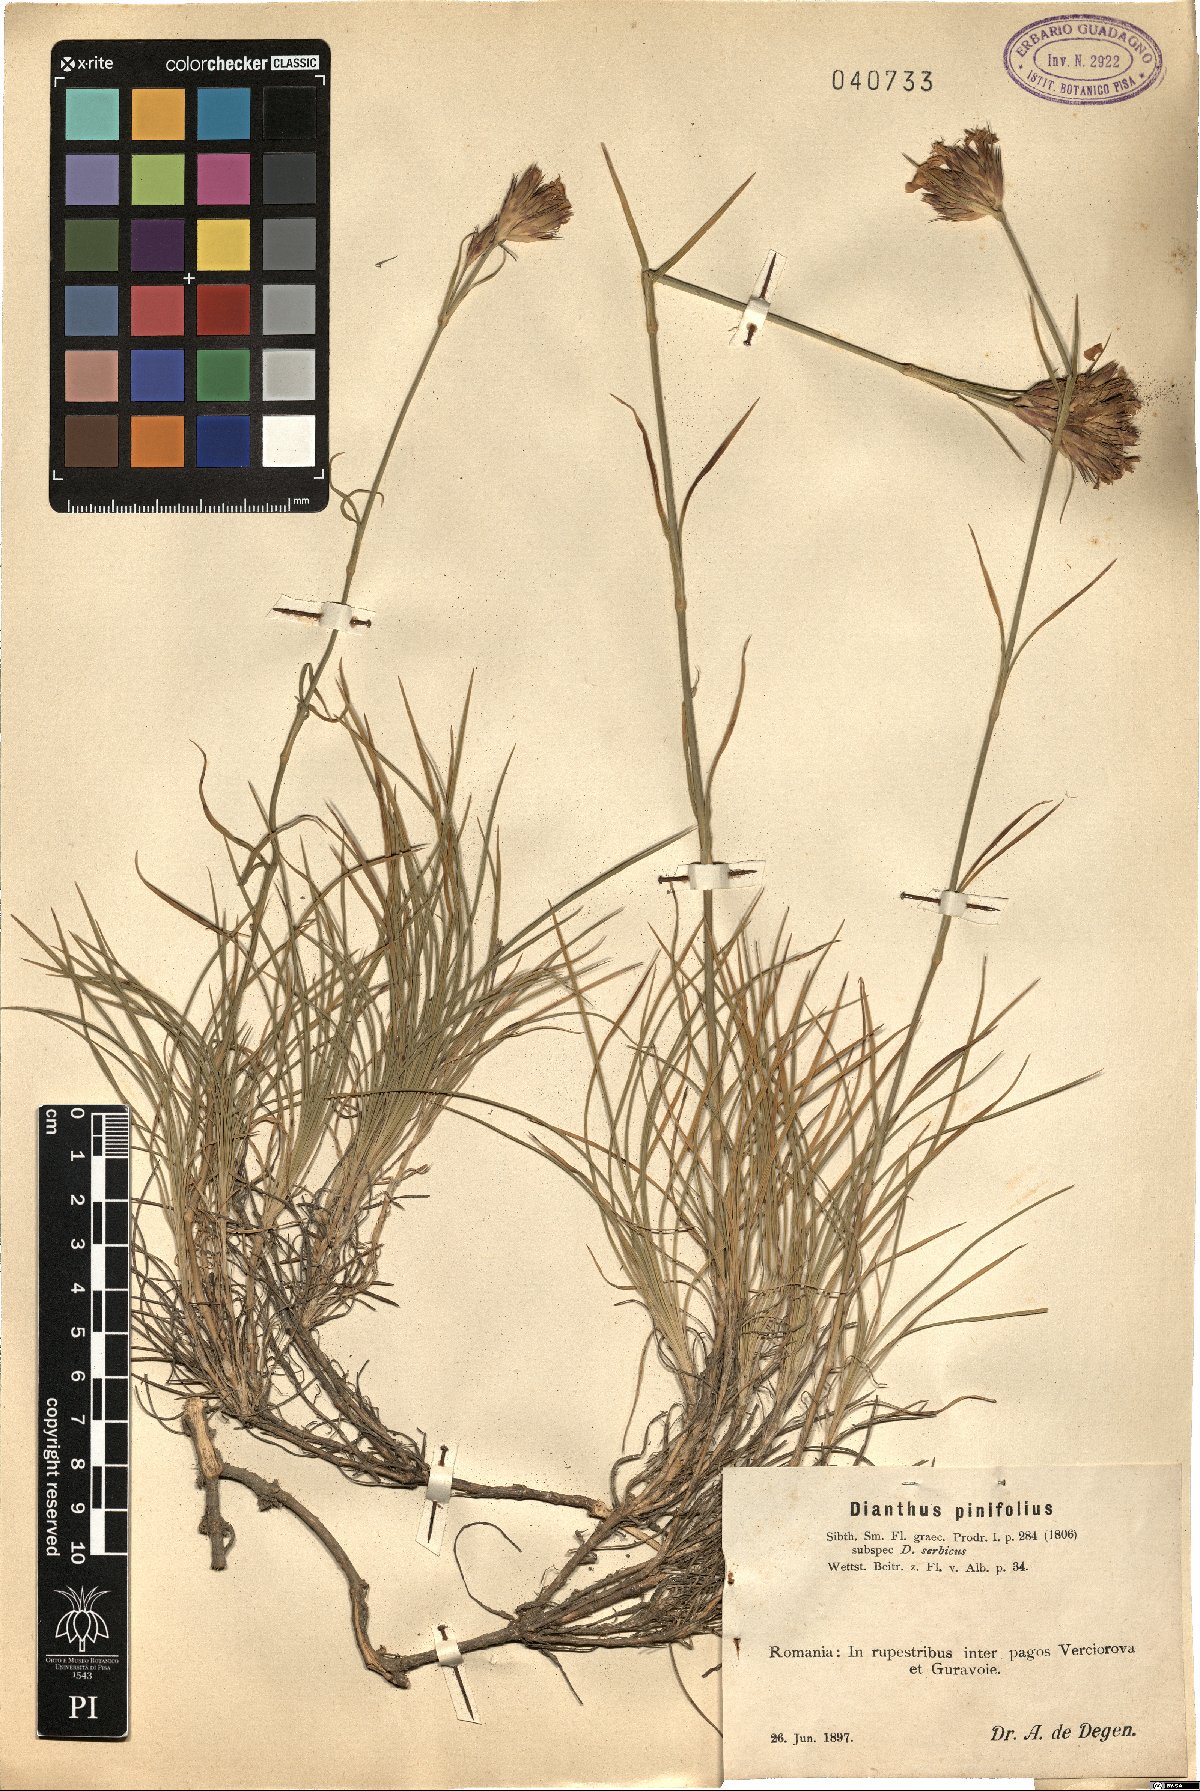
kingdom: Plantae
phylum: Tracheophyta
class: Magnoliopsida
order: Caryophyllales
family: Caryophyllaceae
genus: Dianthus
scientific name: Dianthus pinifolius
